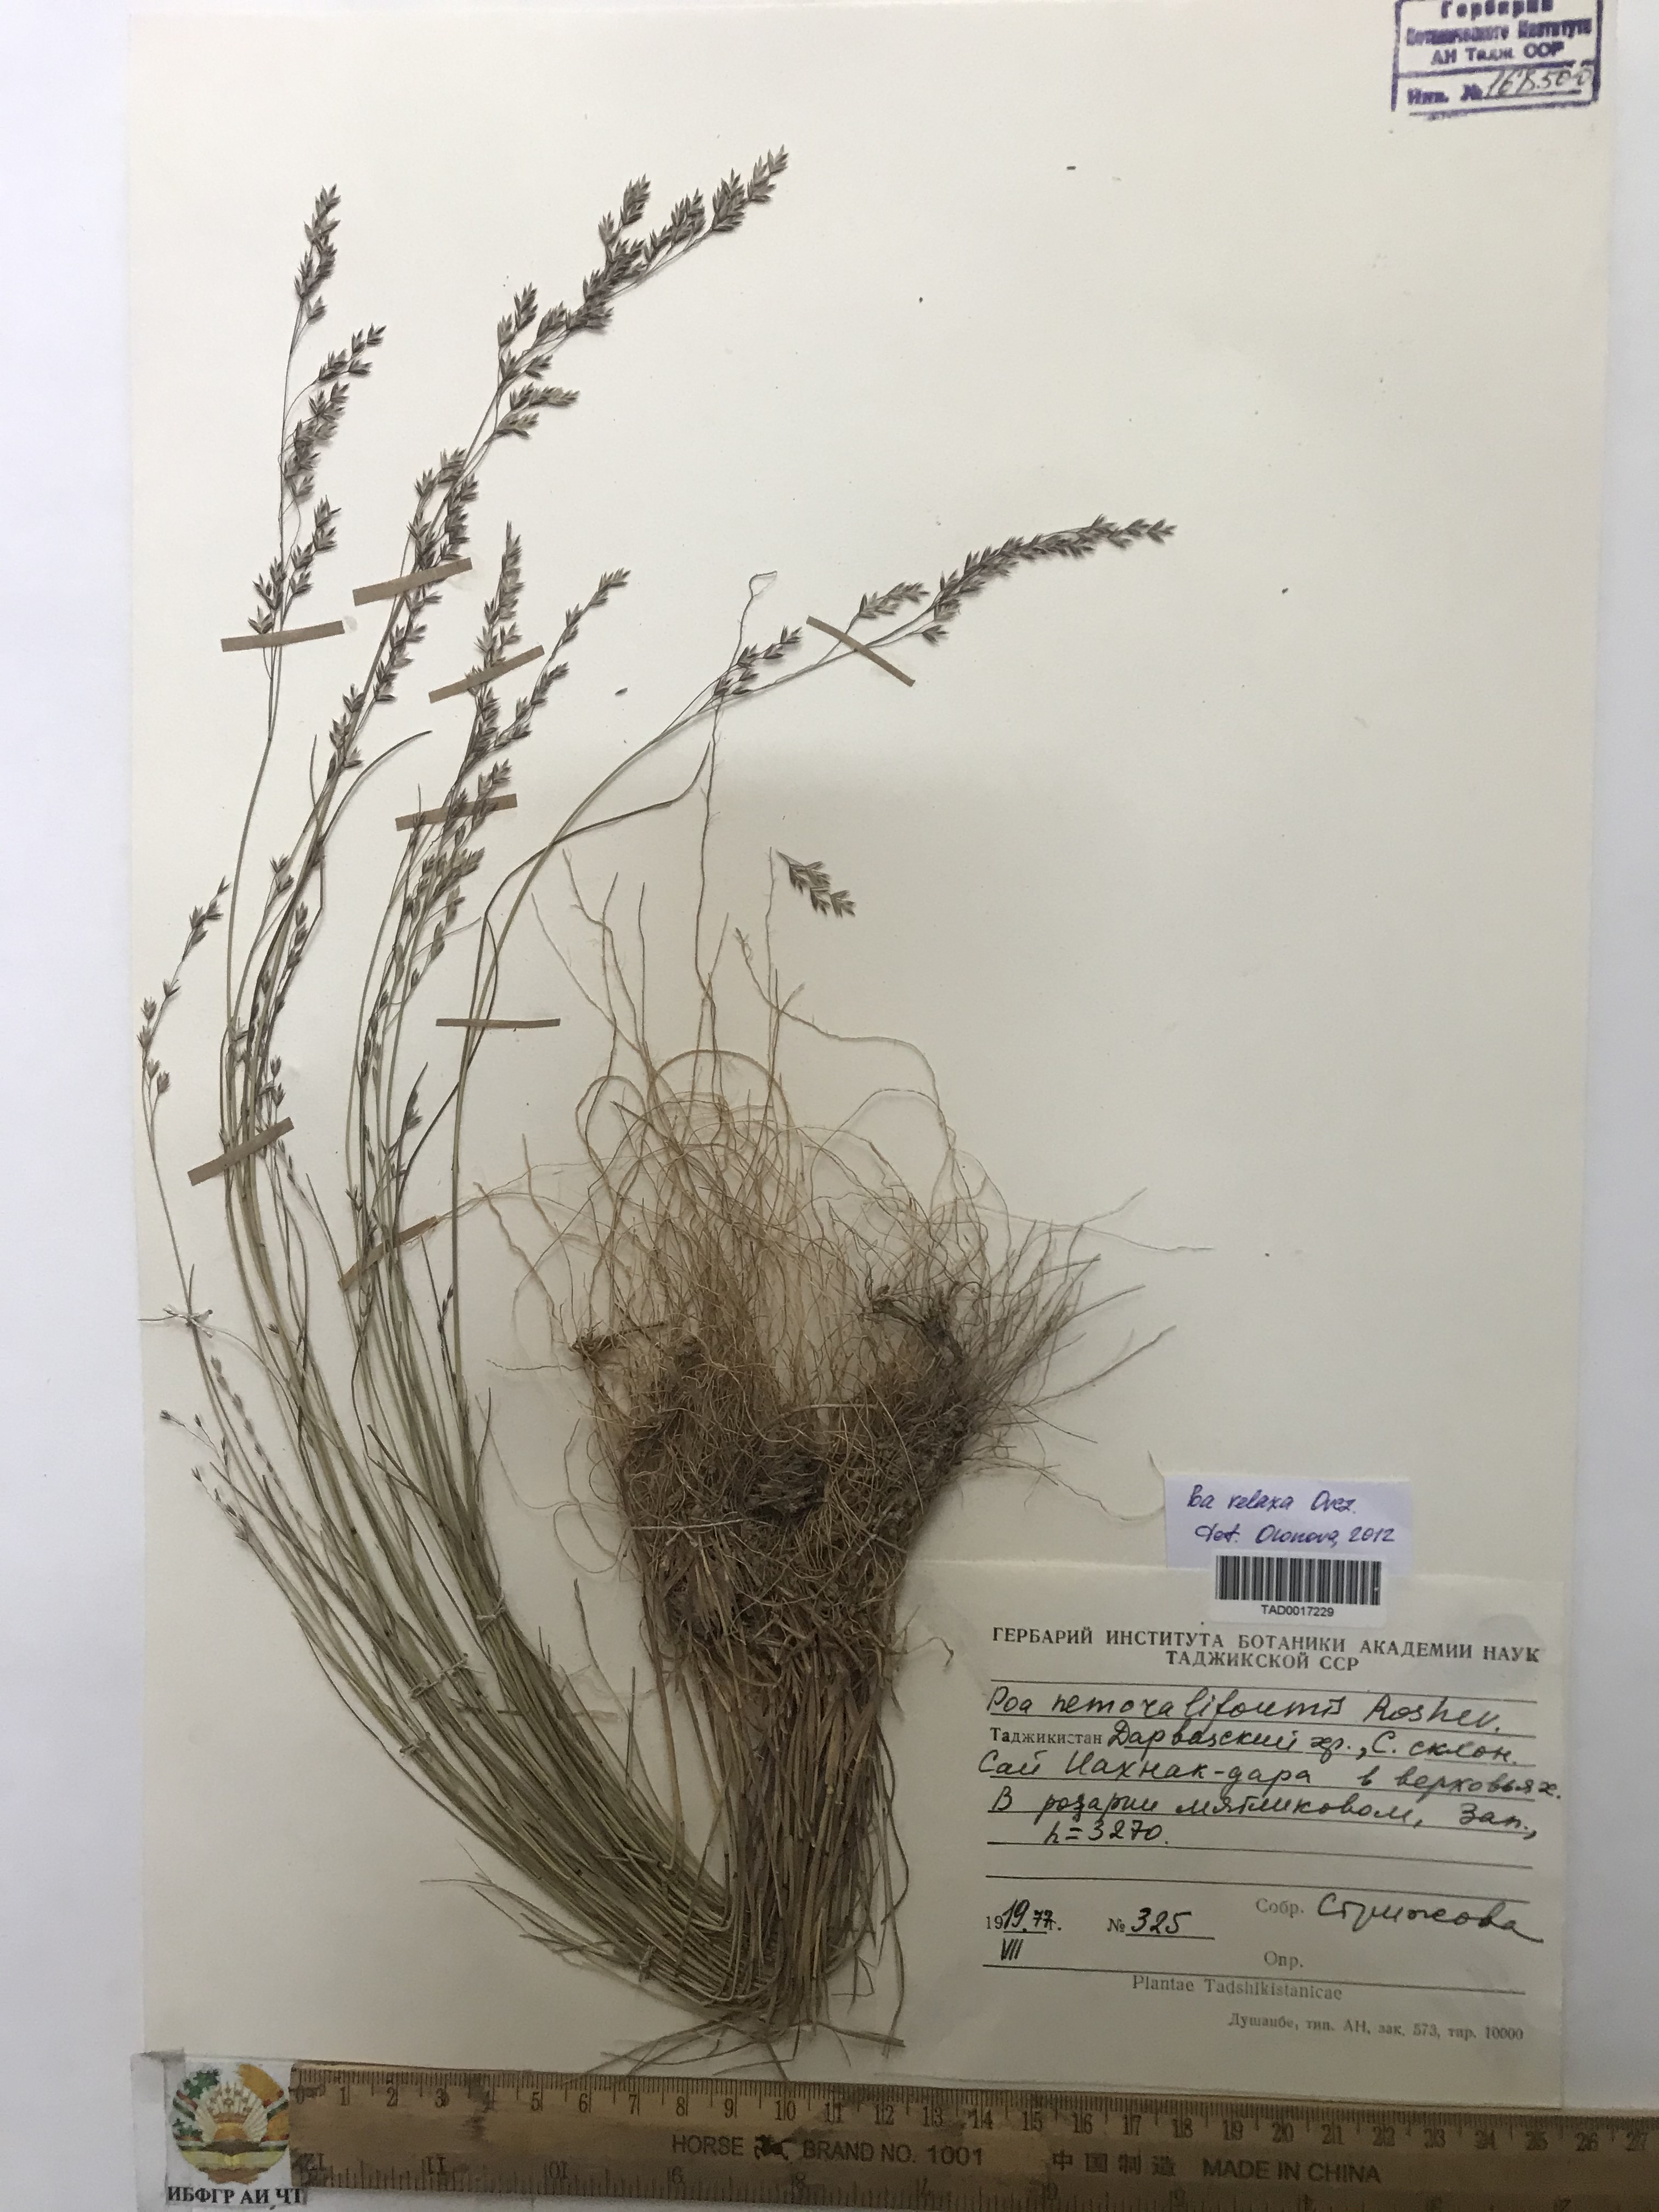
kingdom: Plantae
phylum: Tracheophyta
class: Liliopsida
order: Poales
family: Poaceae
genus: Poa
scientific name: Poa versicolor
